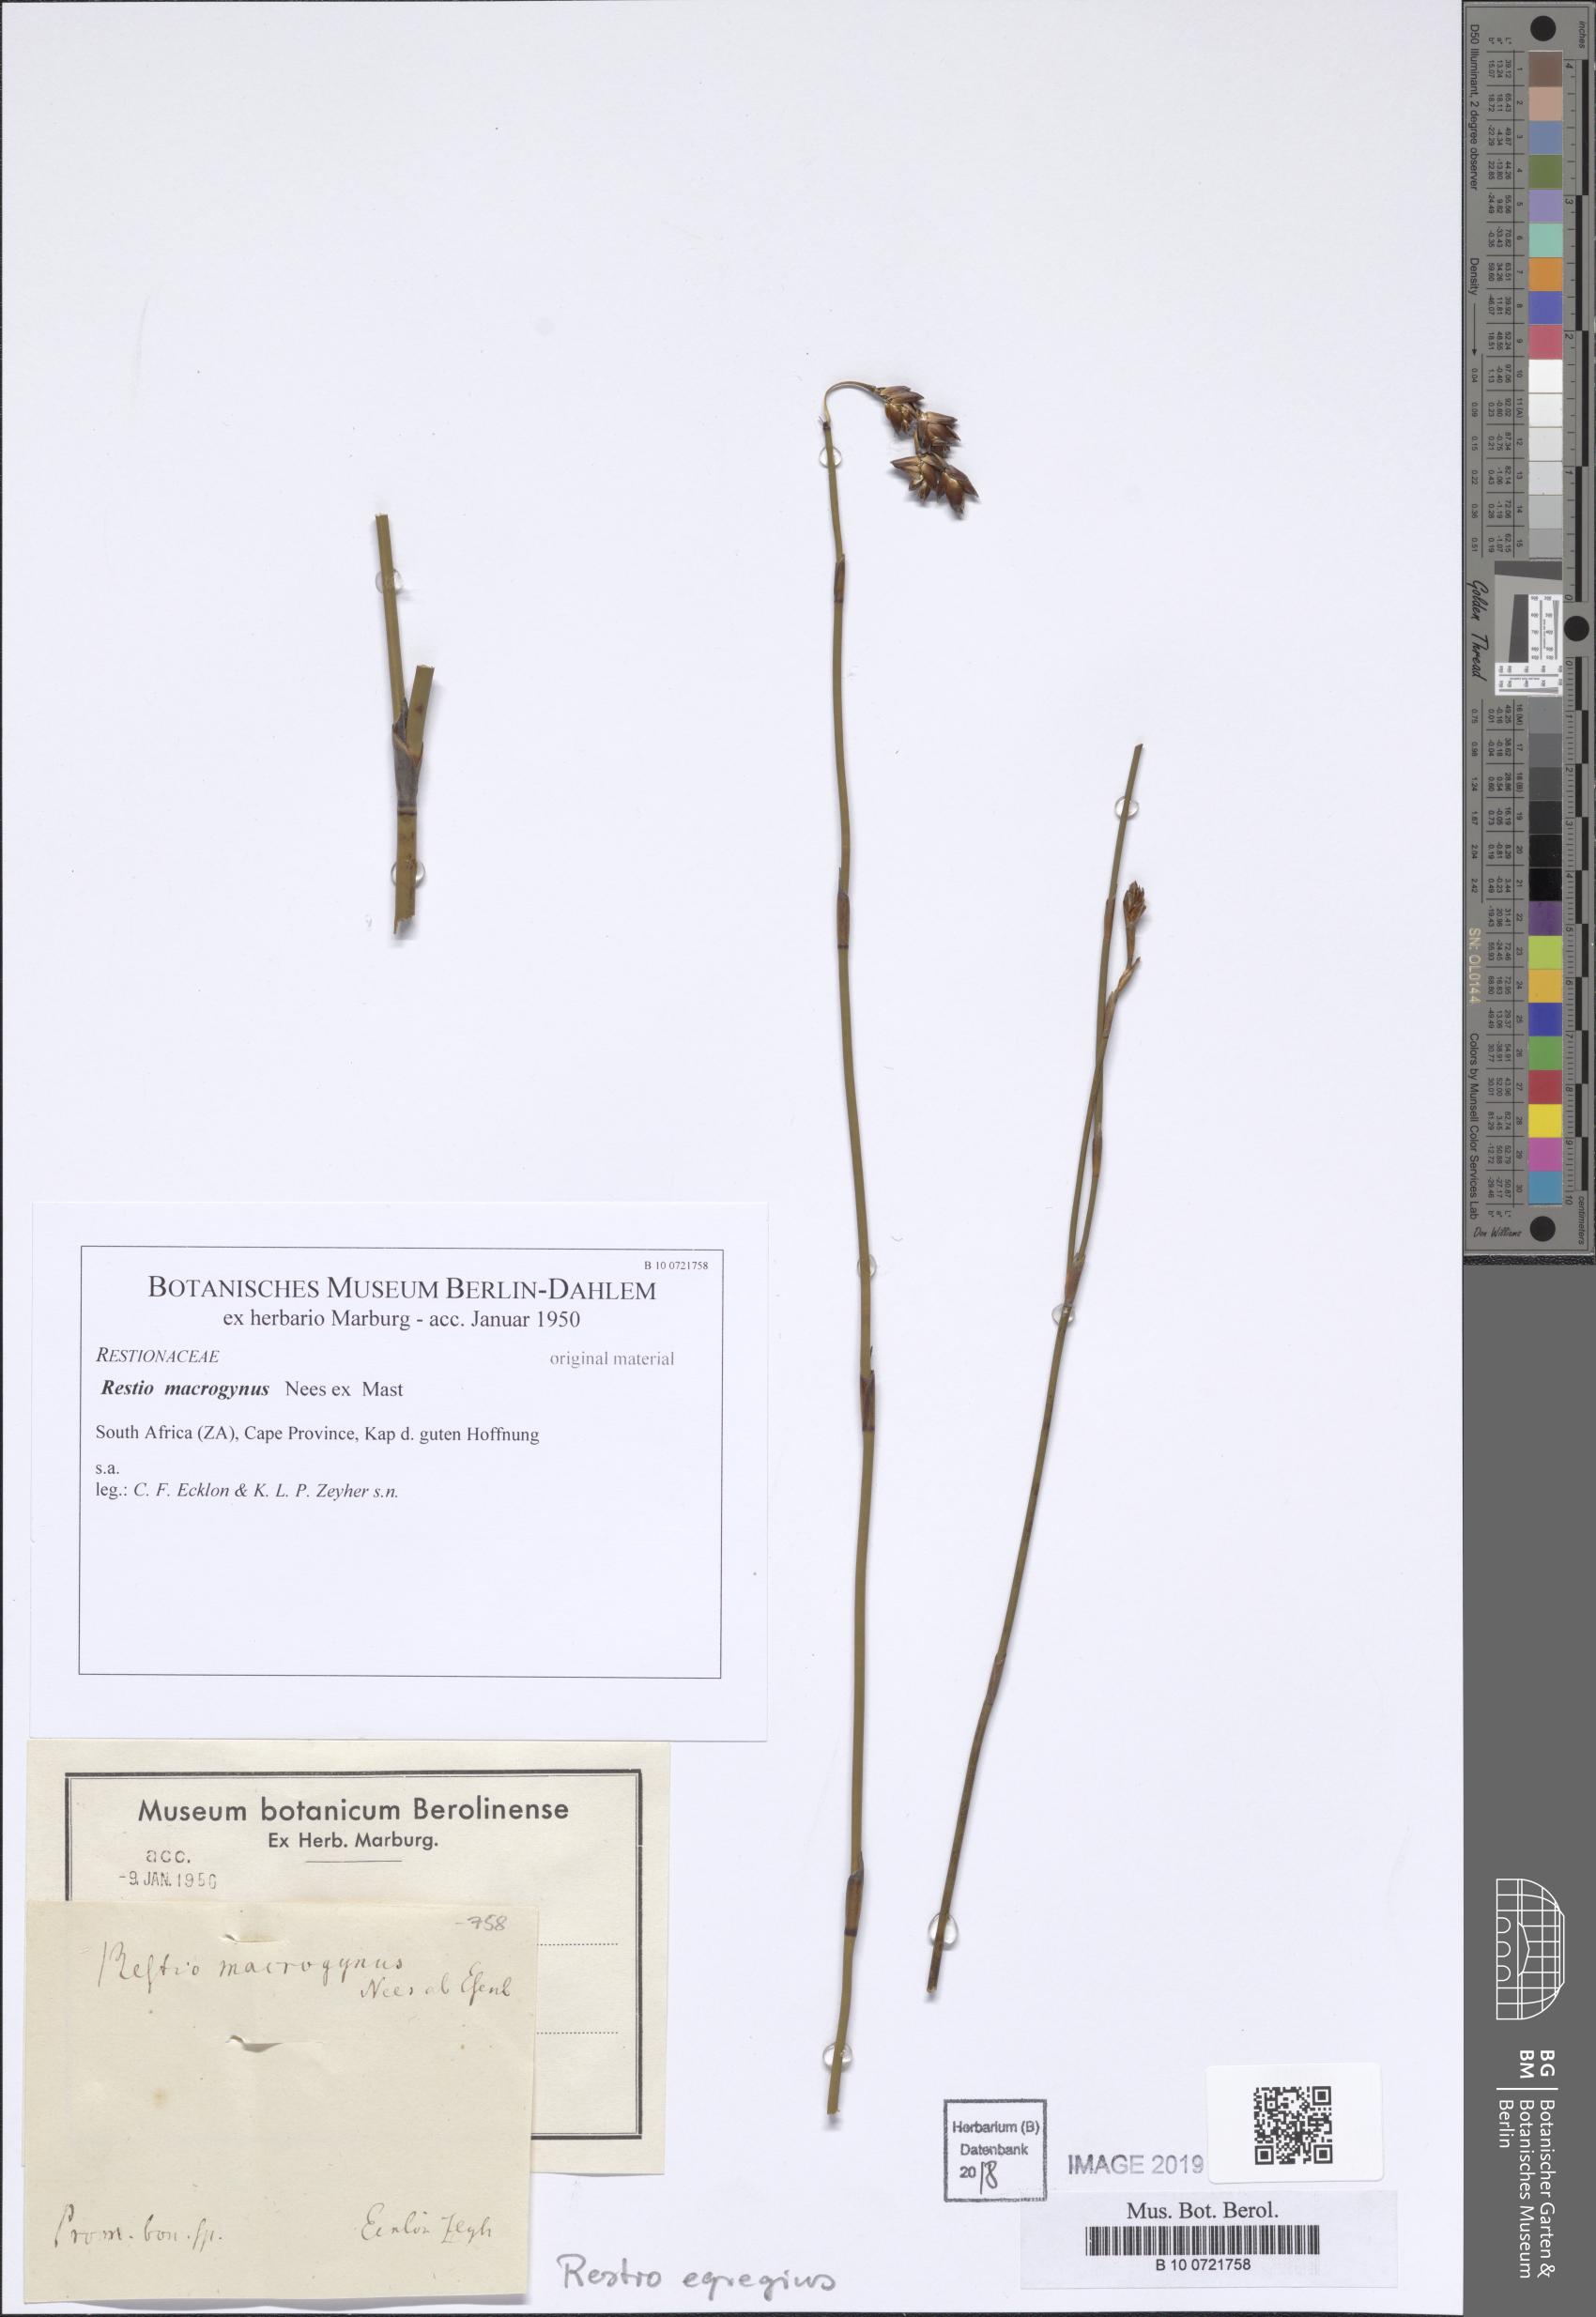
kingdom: Plantae
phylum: Tracheophyta
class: Liliopsida
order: Poales
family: Restionaceae
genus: Restio
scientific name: Restio egregius
